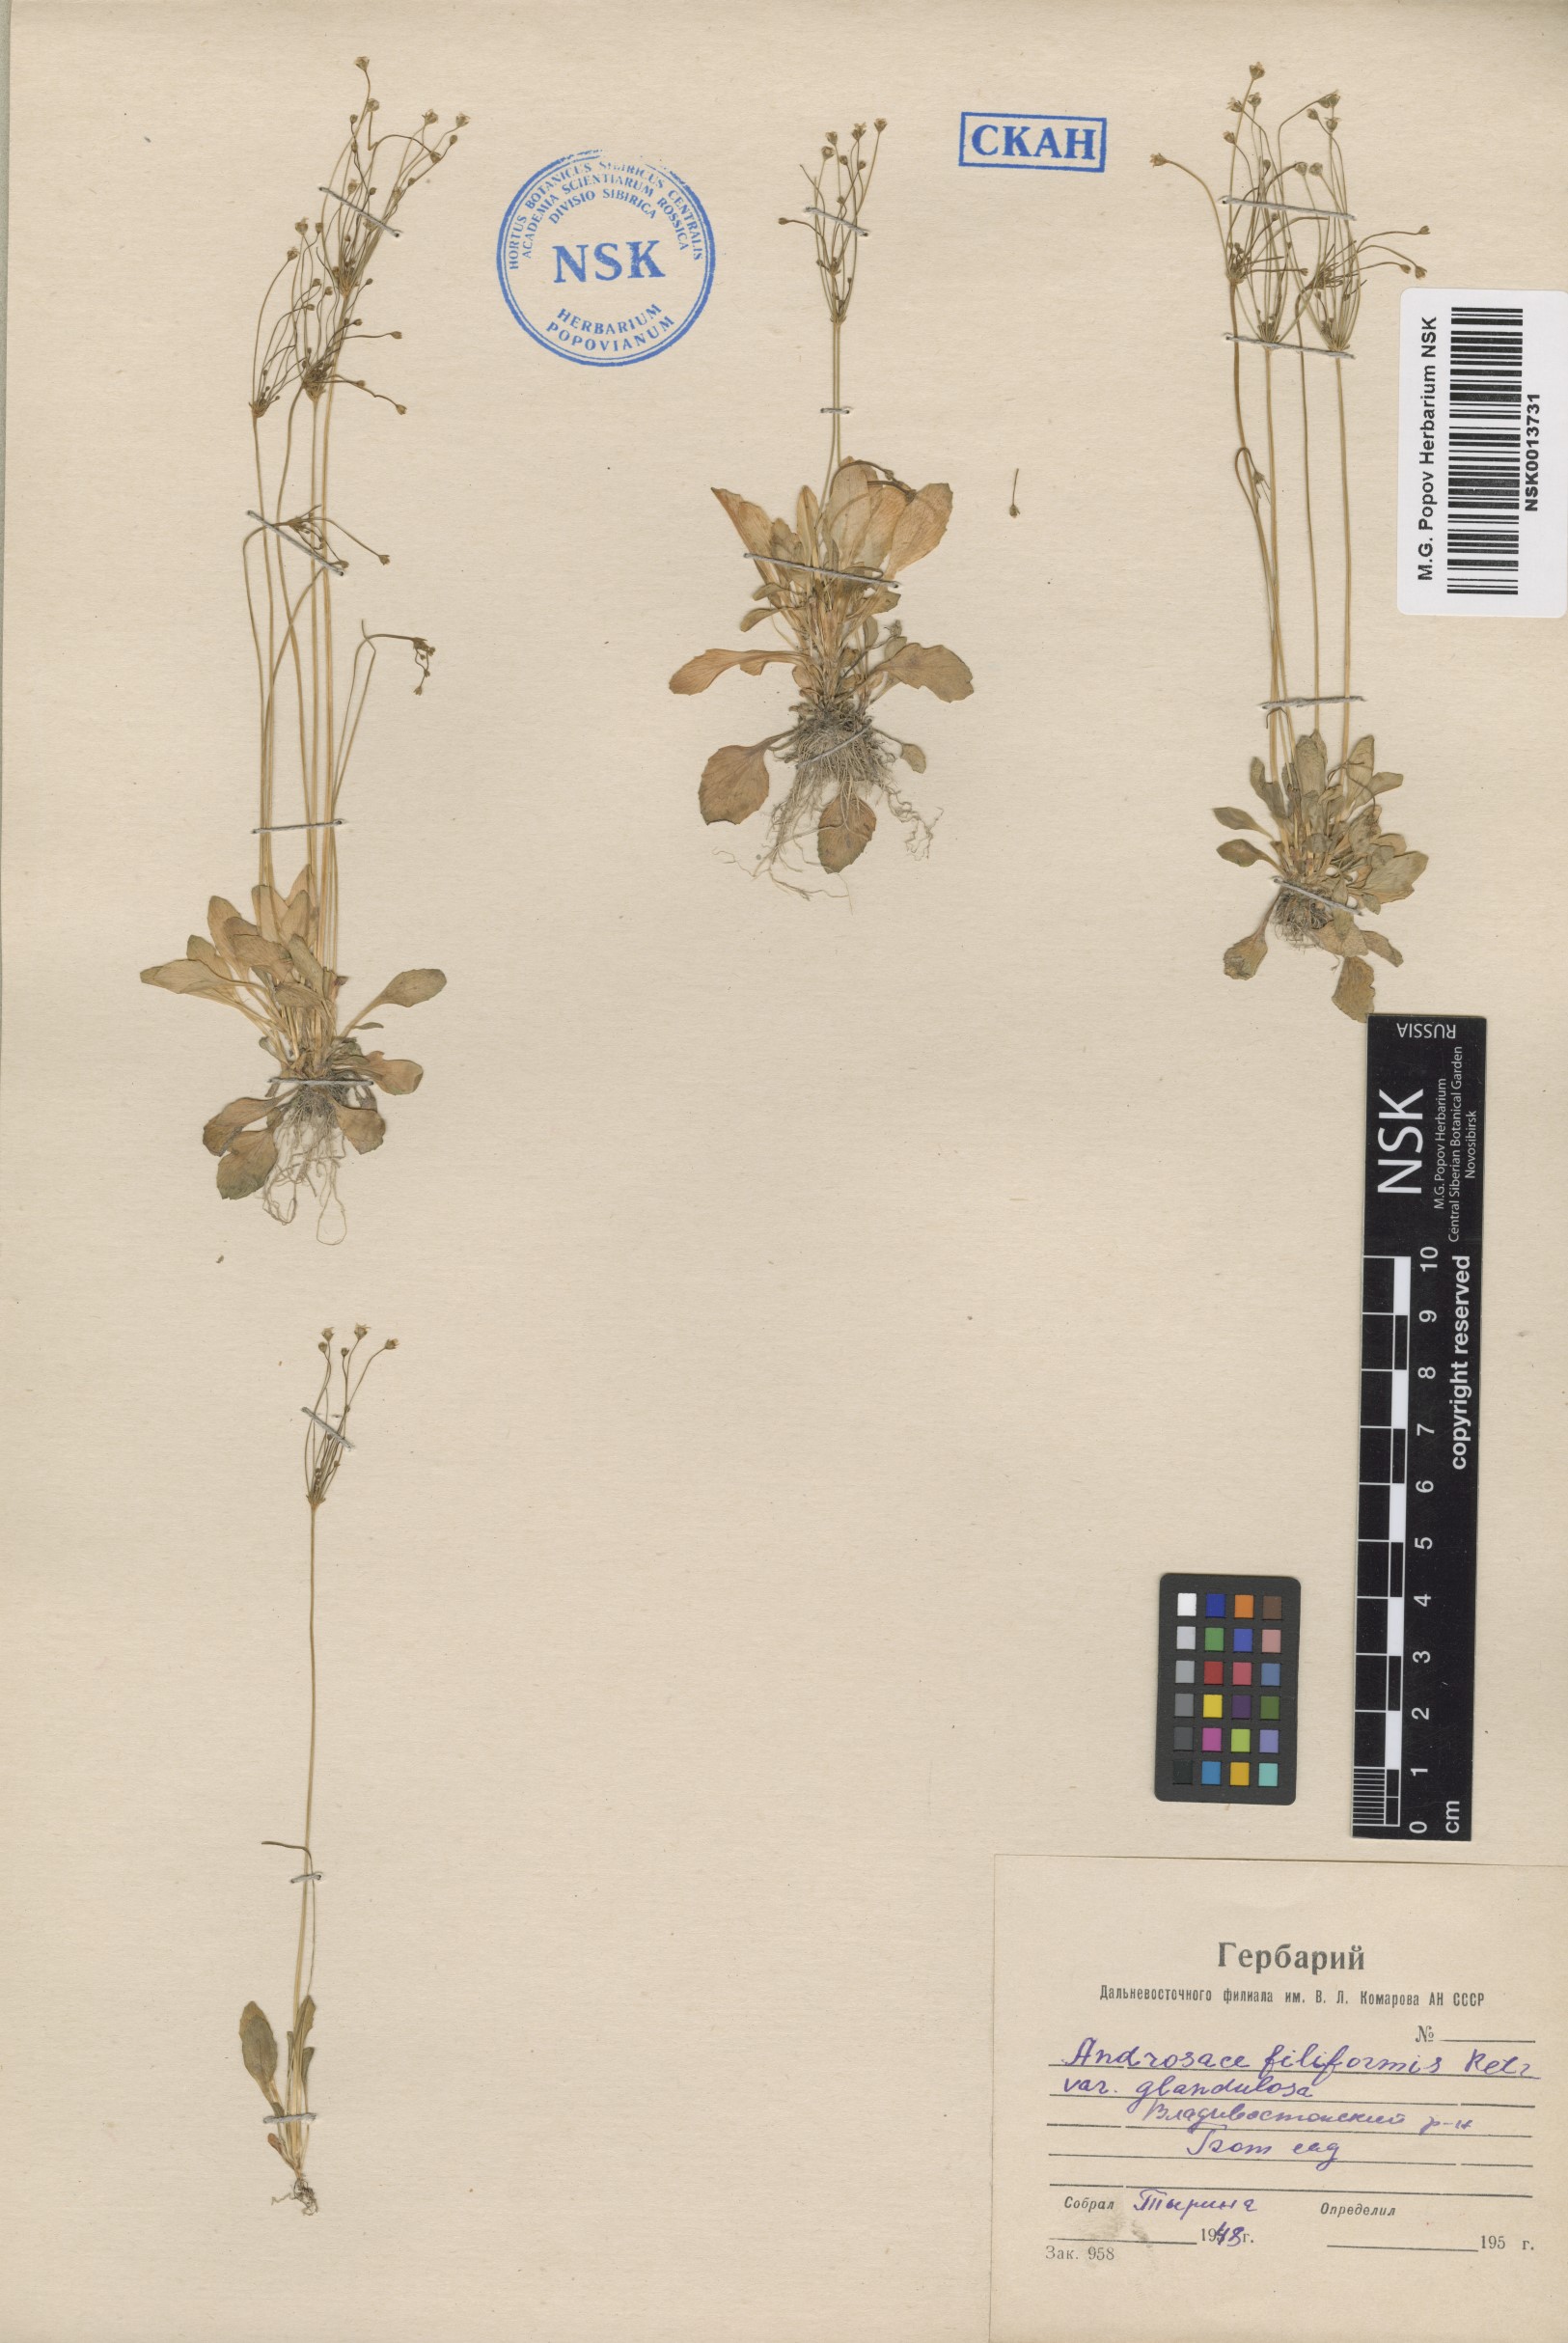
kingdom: Plantae
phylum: Tracheophyta
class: Magnoliopsida
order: Ericales
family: Primulaceae
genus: Androsace
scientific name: Androsace filiformis
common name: Filiform rock jasmine
